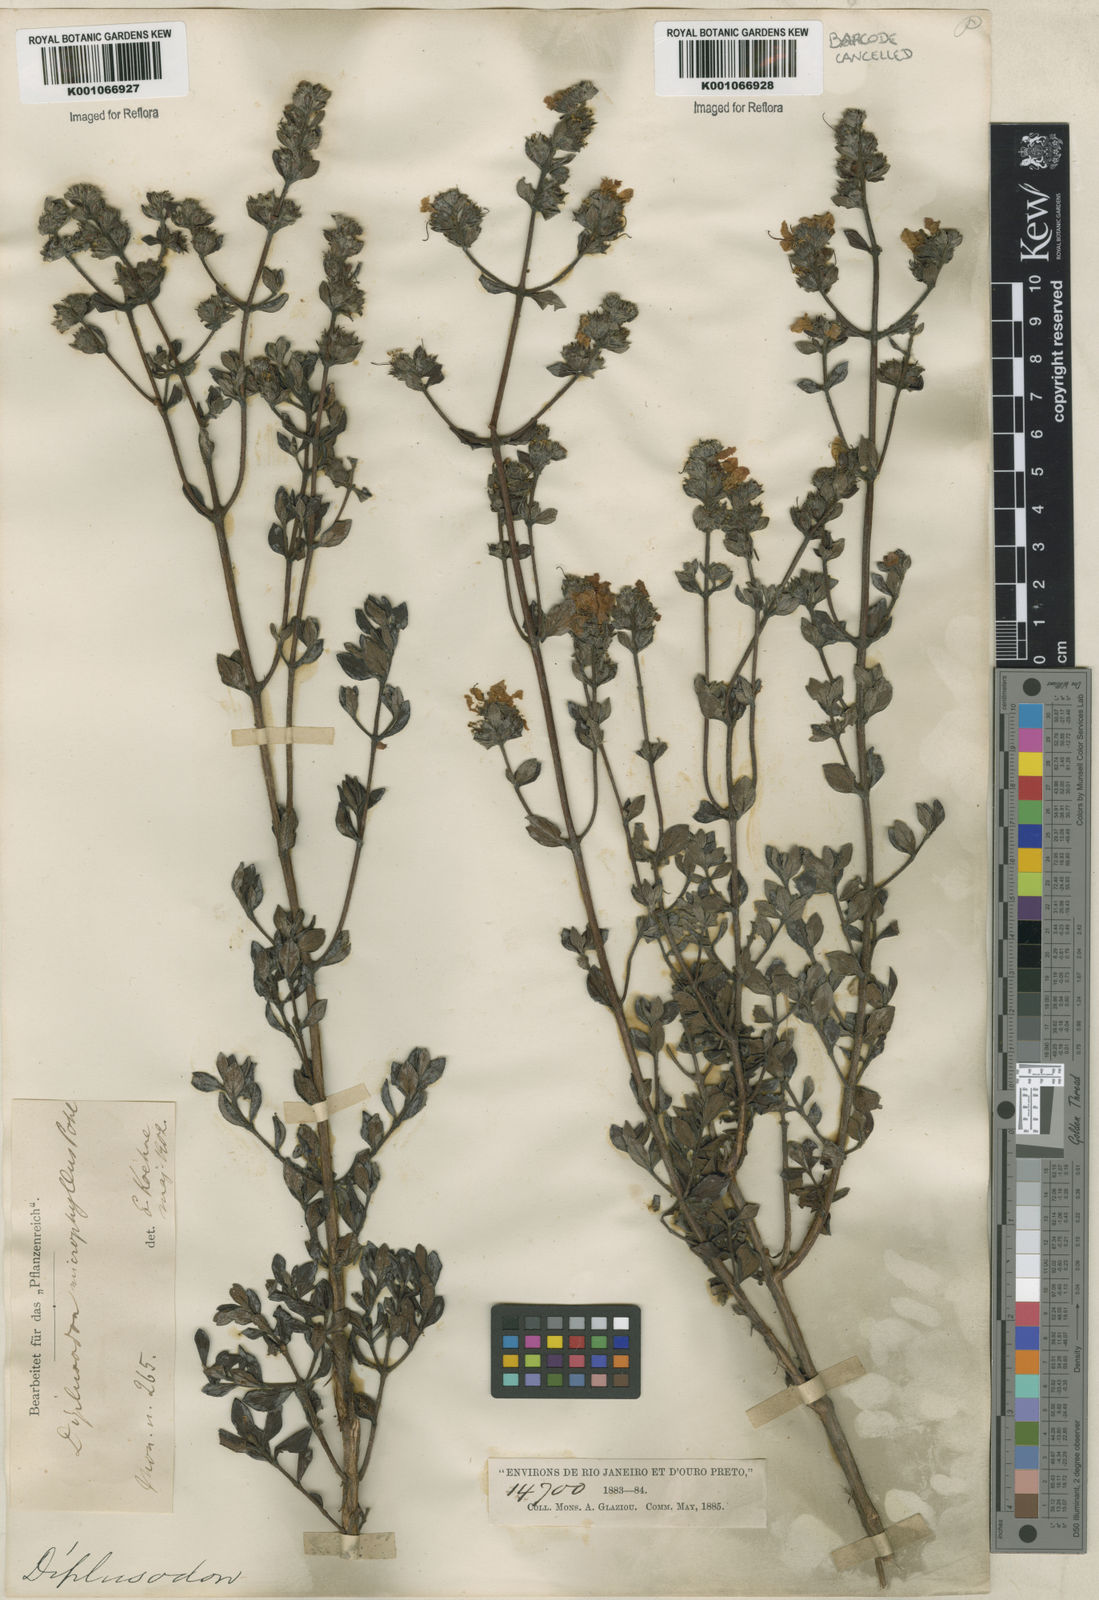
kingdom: Plantae
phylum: Tracheophyta
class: Magnoliopsida
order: Myrtales
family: Lythraceae
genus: Diplusodon
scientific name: Diplusodon microphyllus
